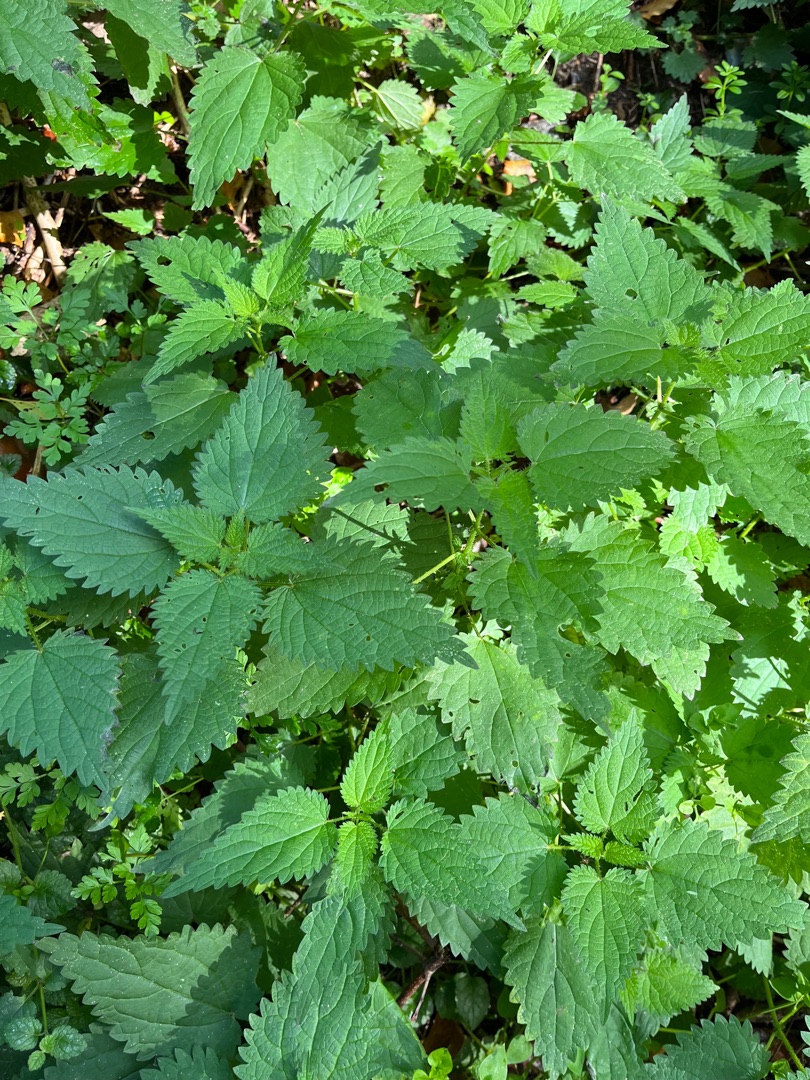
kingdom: Plantae
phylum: Tracheophyta
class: Magnoliopsida
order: Rosales
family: Urticaceae
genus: Urtica
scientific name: Urtica dioica
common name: Stor nælde
